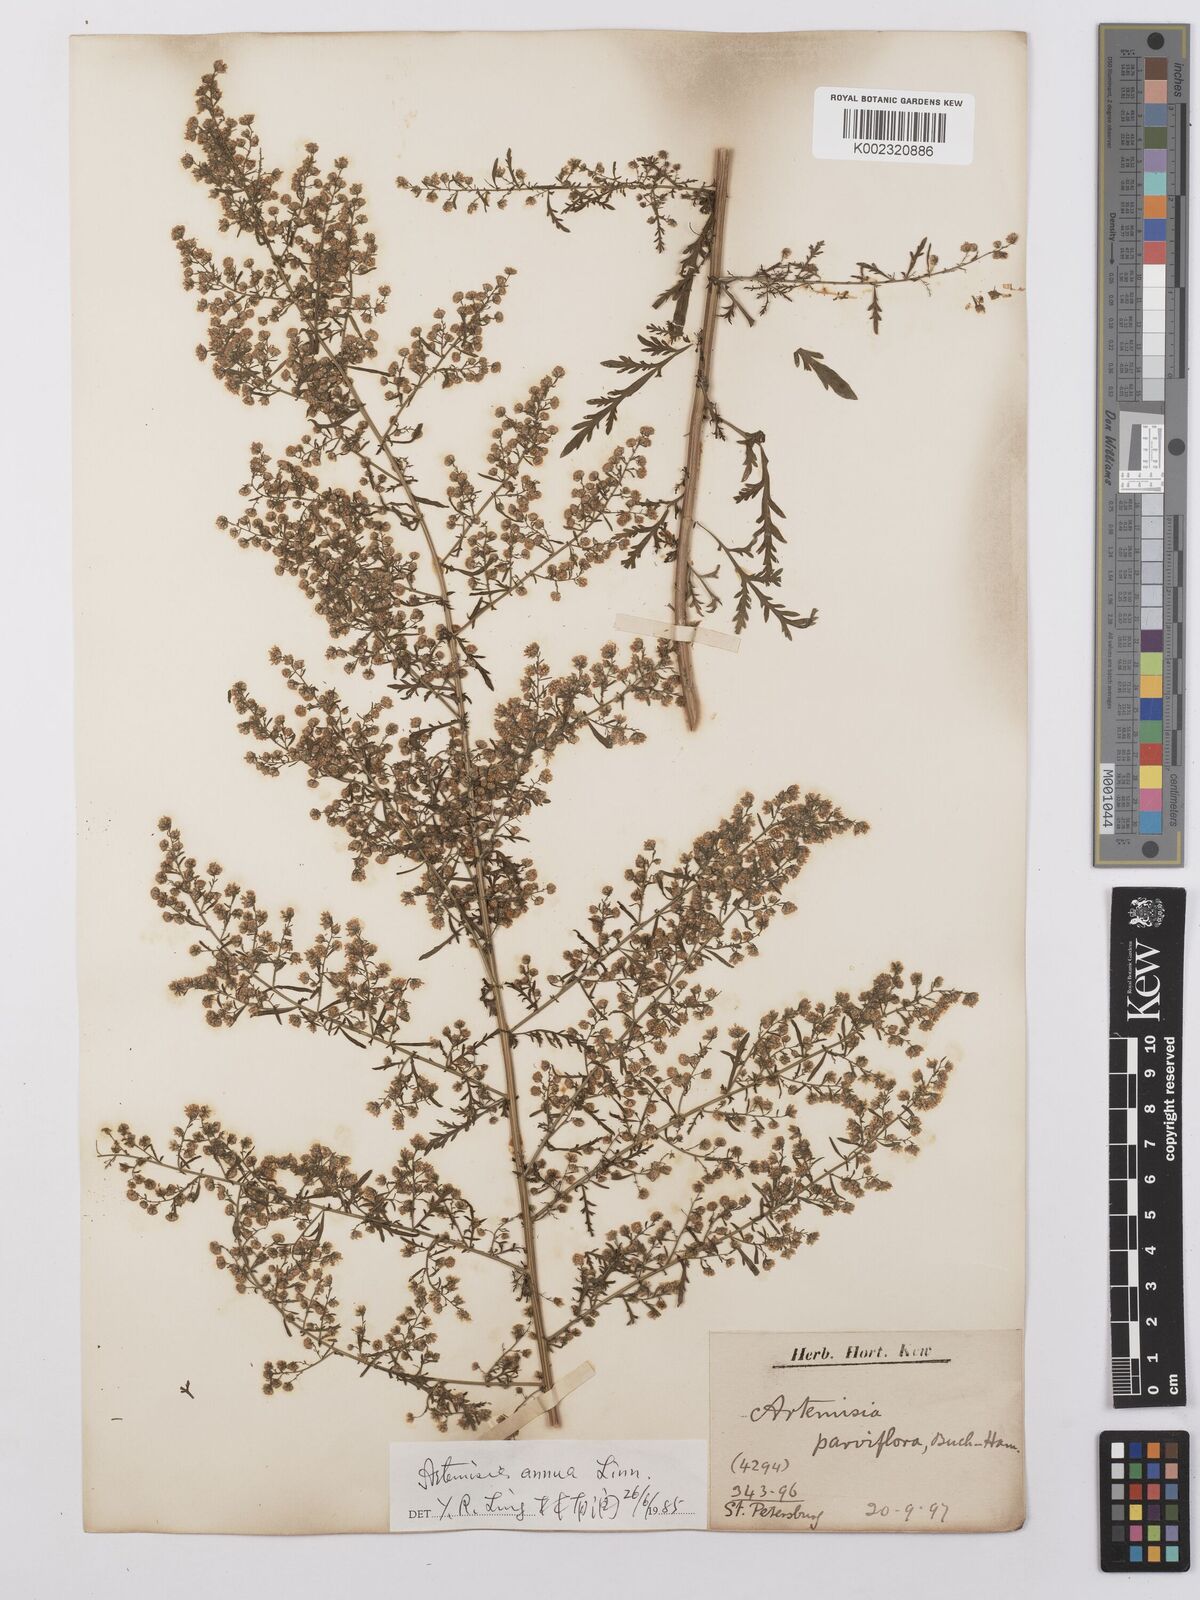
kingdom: Plantae
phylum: Tracheophyta
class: Magnoliopsida
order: Asterales
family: Asteraceae
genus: Artemisia
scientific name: Artemisia vulgaris
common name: Mugwort
